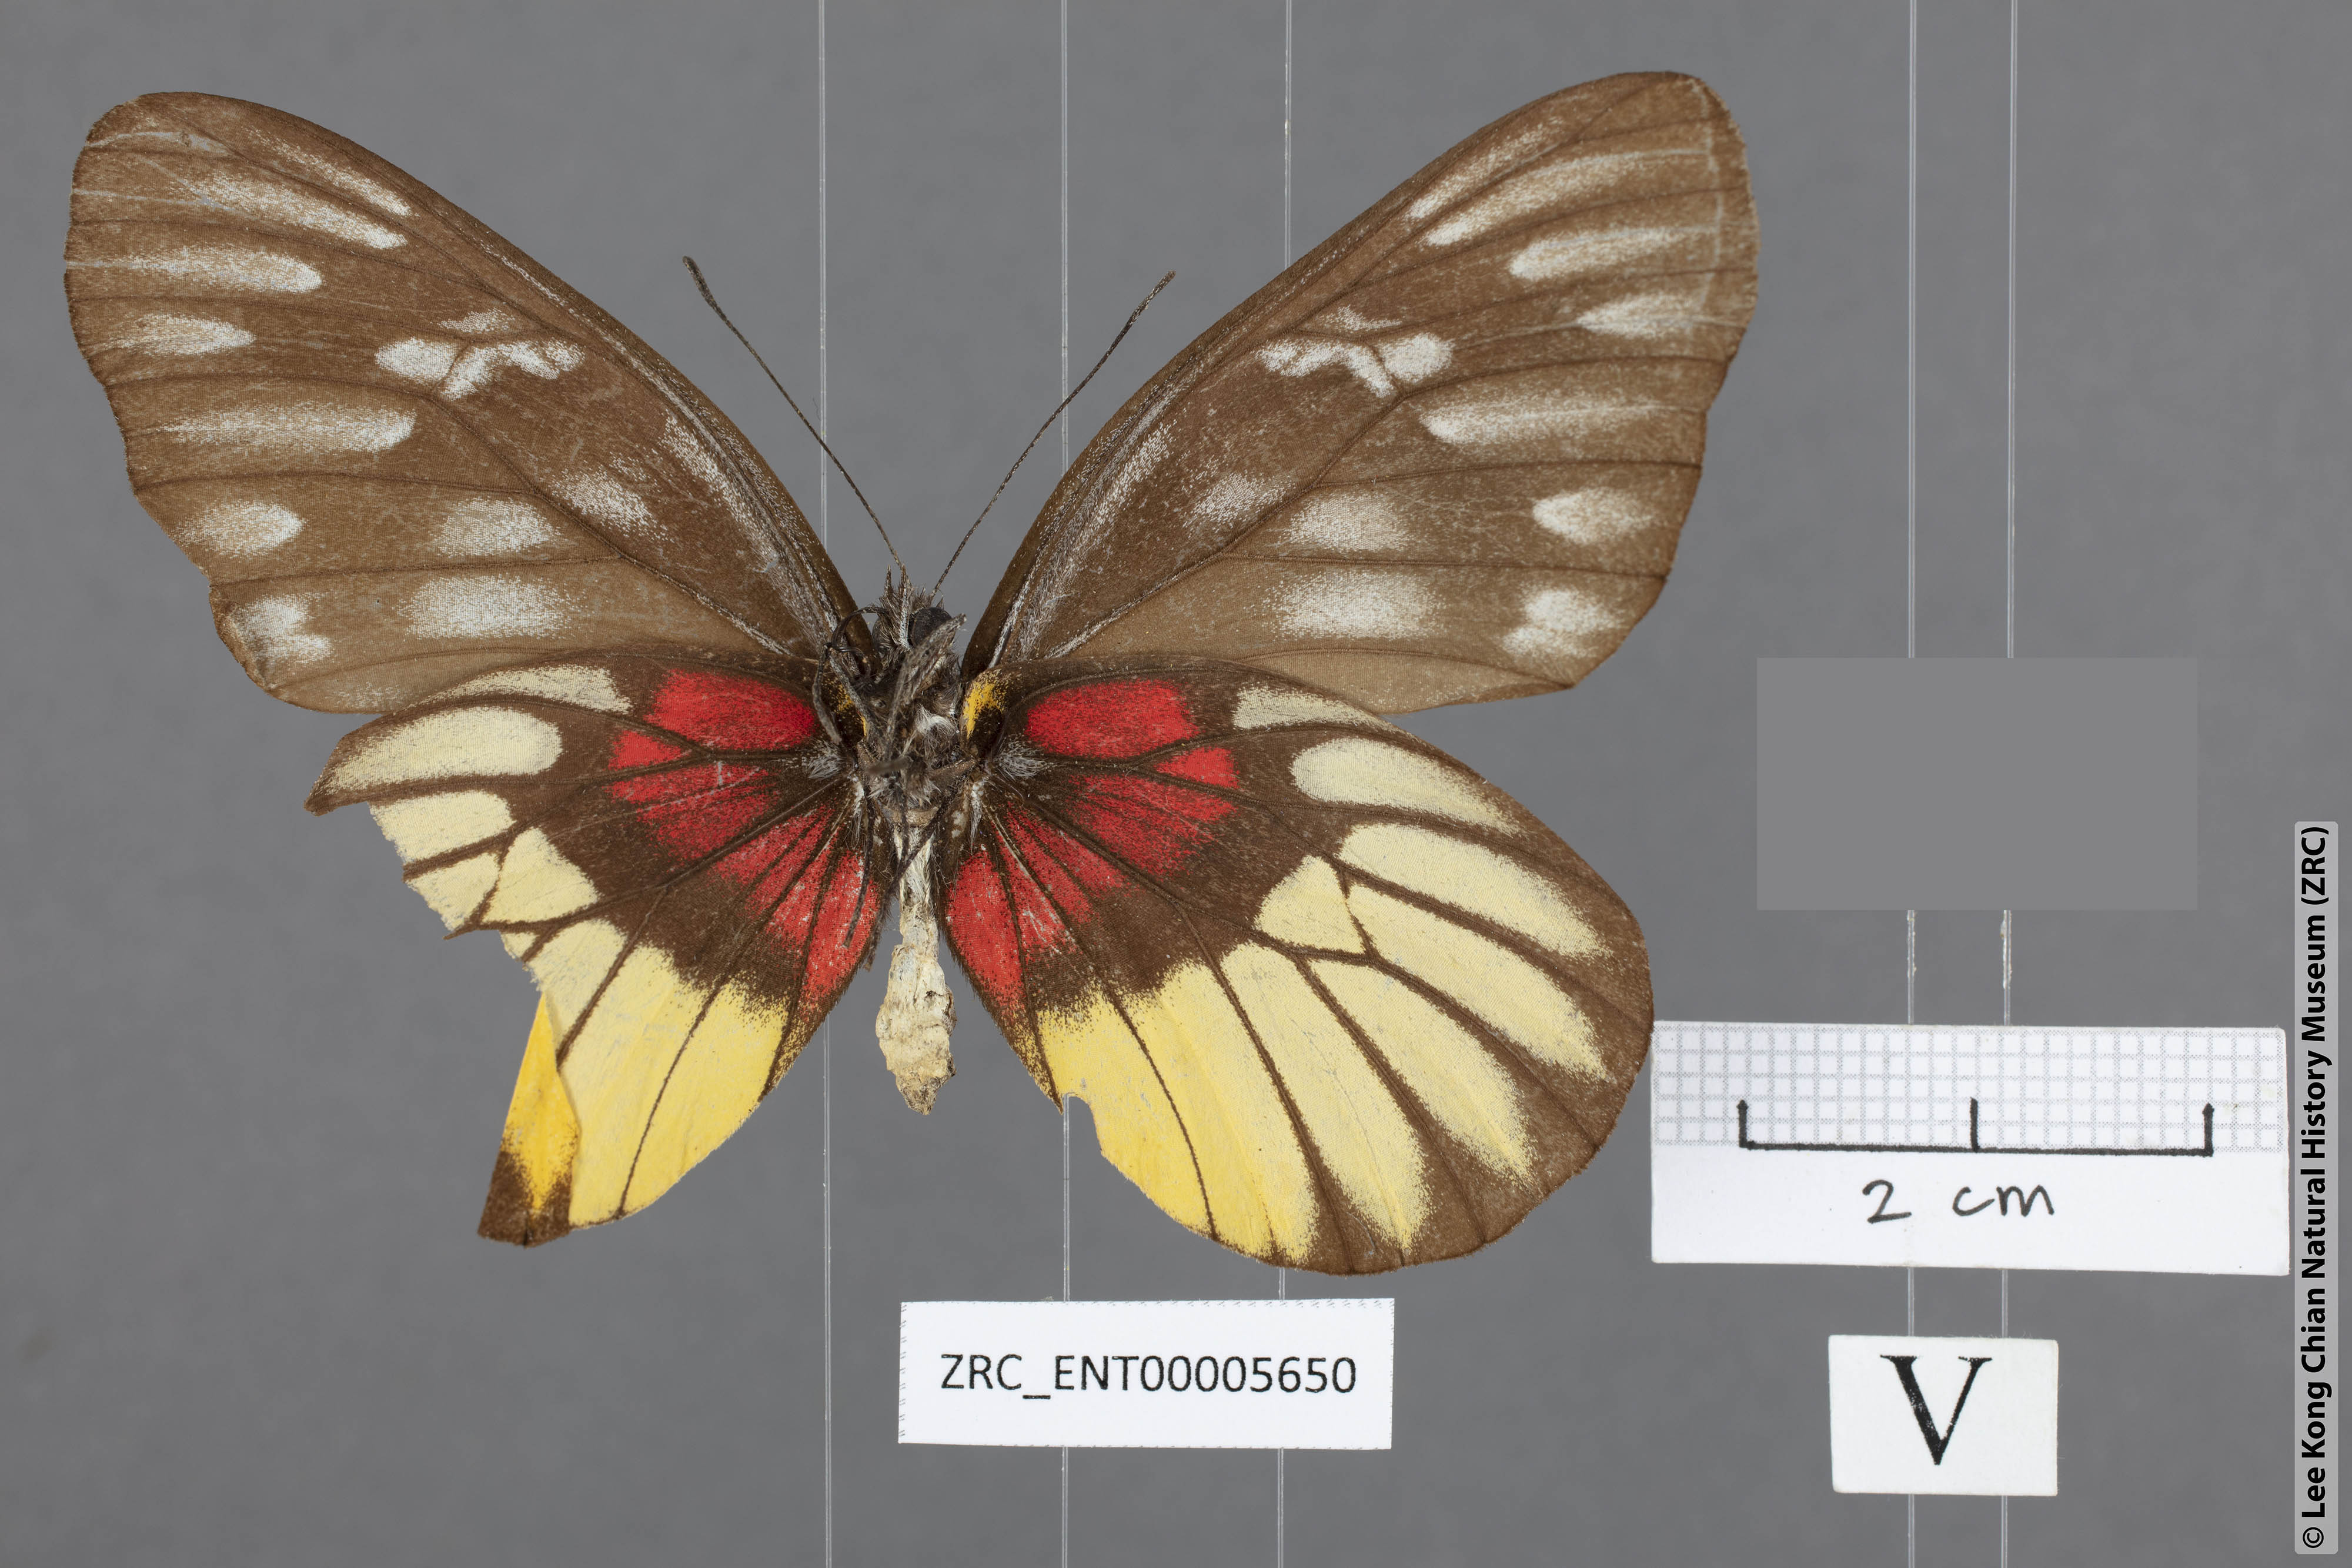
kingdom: Animalia
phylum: Arthropoda
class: Insecta
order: Lepidoptera
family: Pieridae
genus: Delias
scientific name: Delias acalis
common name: Red-breast jezebel
